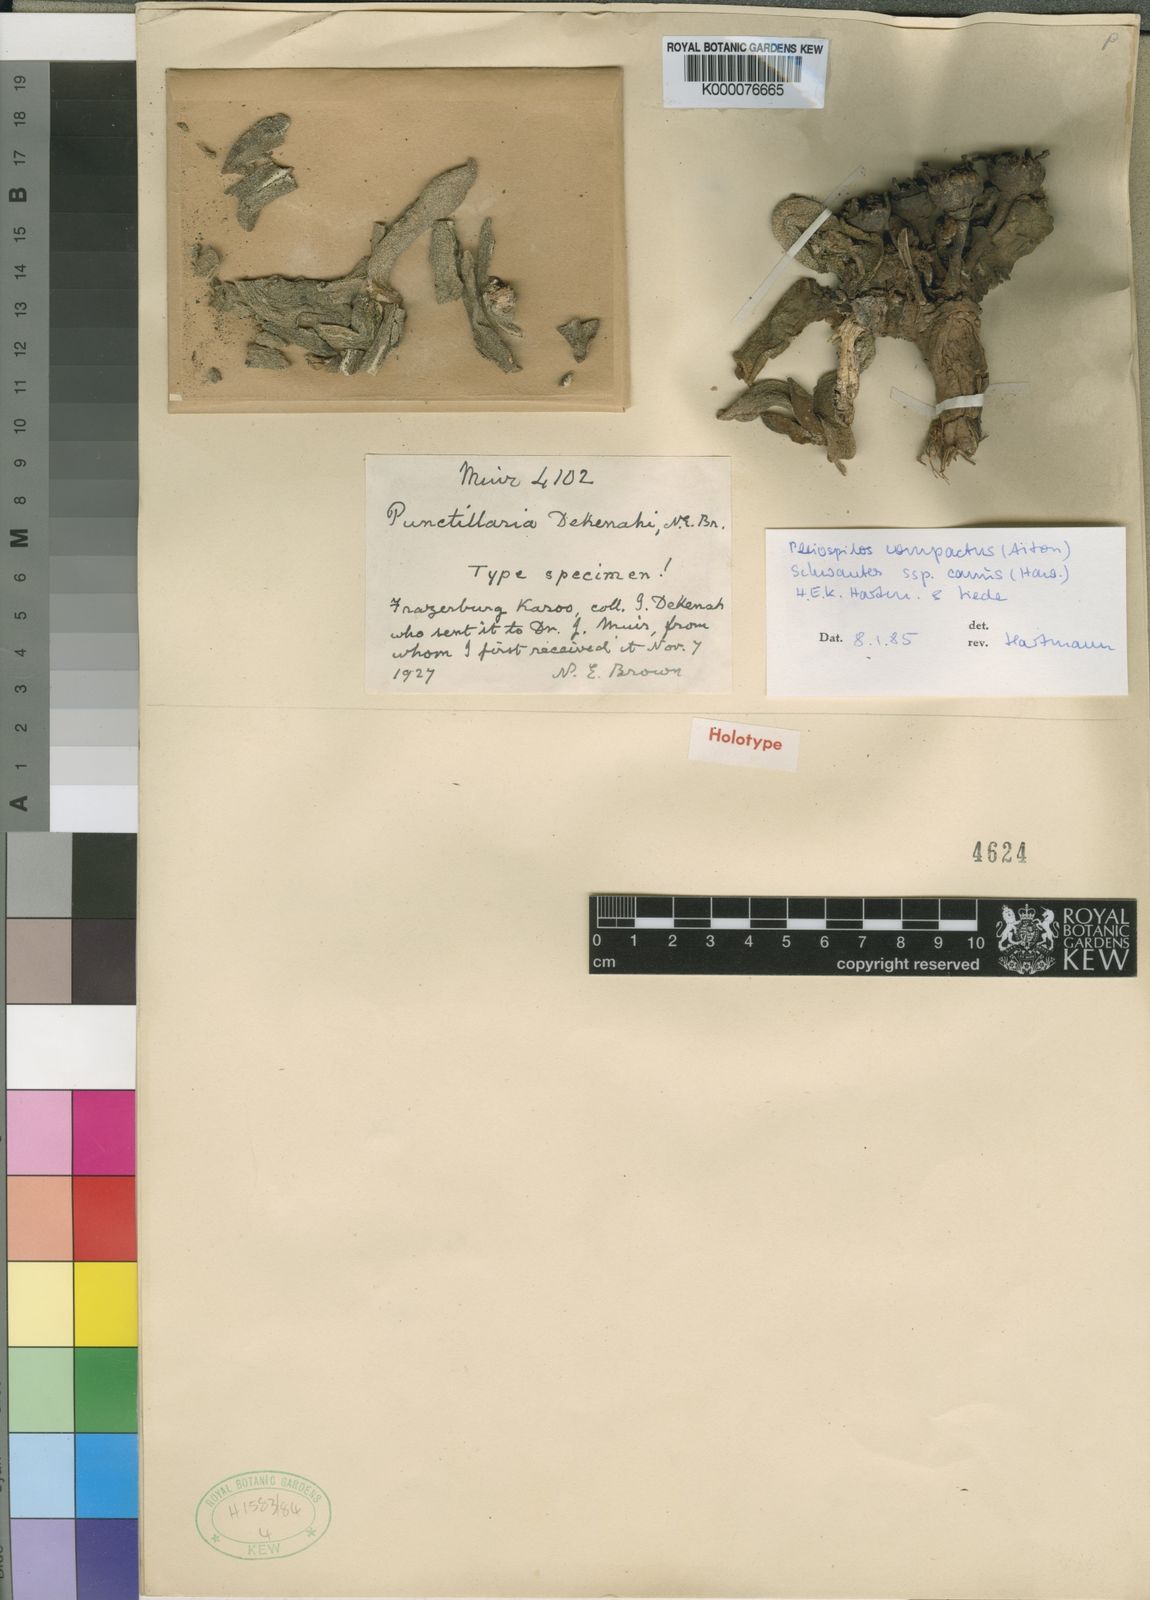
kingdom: Plantae
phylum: Tracheophyta
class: Magnoliopsida
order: Caryophyllales
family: Aizoaceae
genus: Pleiospilos
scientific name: Pleiospilos compactus
